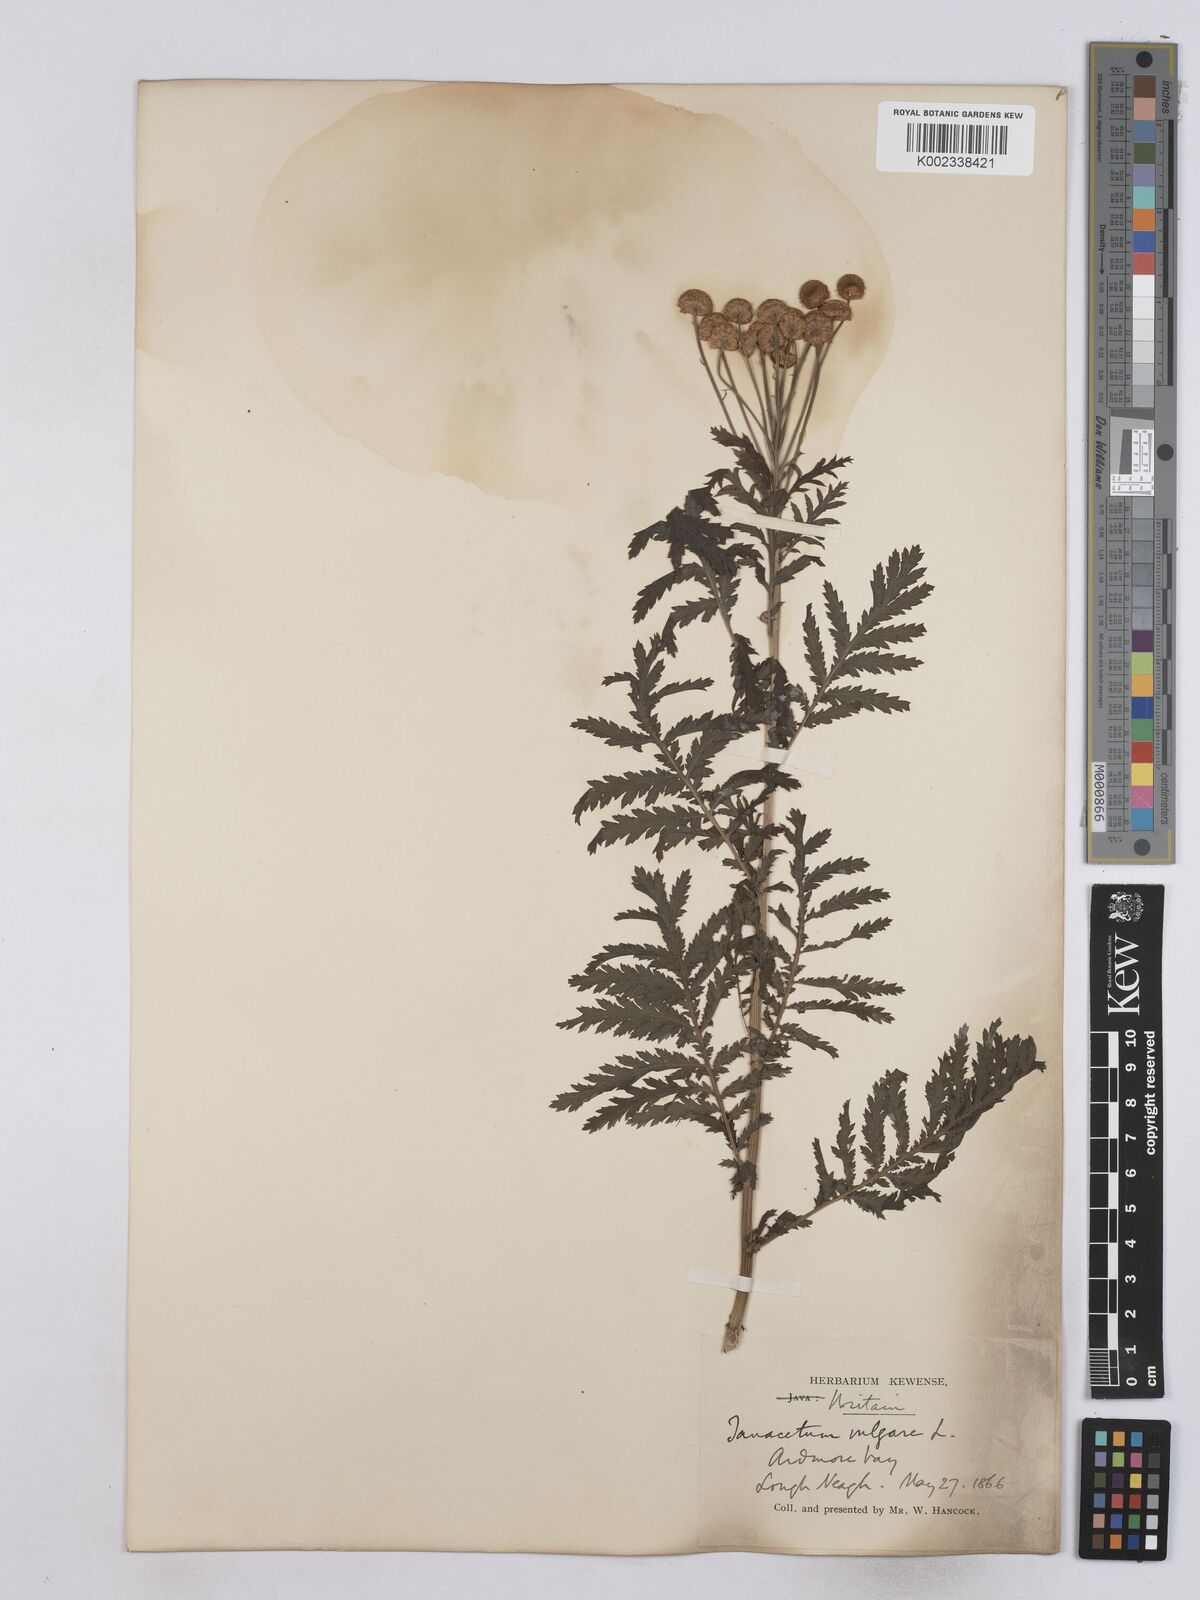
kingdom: Plantae
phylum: Tracheophyta
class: Magnoliopsida
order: Asterales
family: Asteraceae
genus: Tanacetum
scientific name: Tanacetum vulgare
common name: Common tansy
